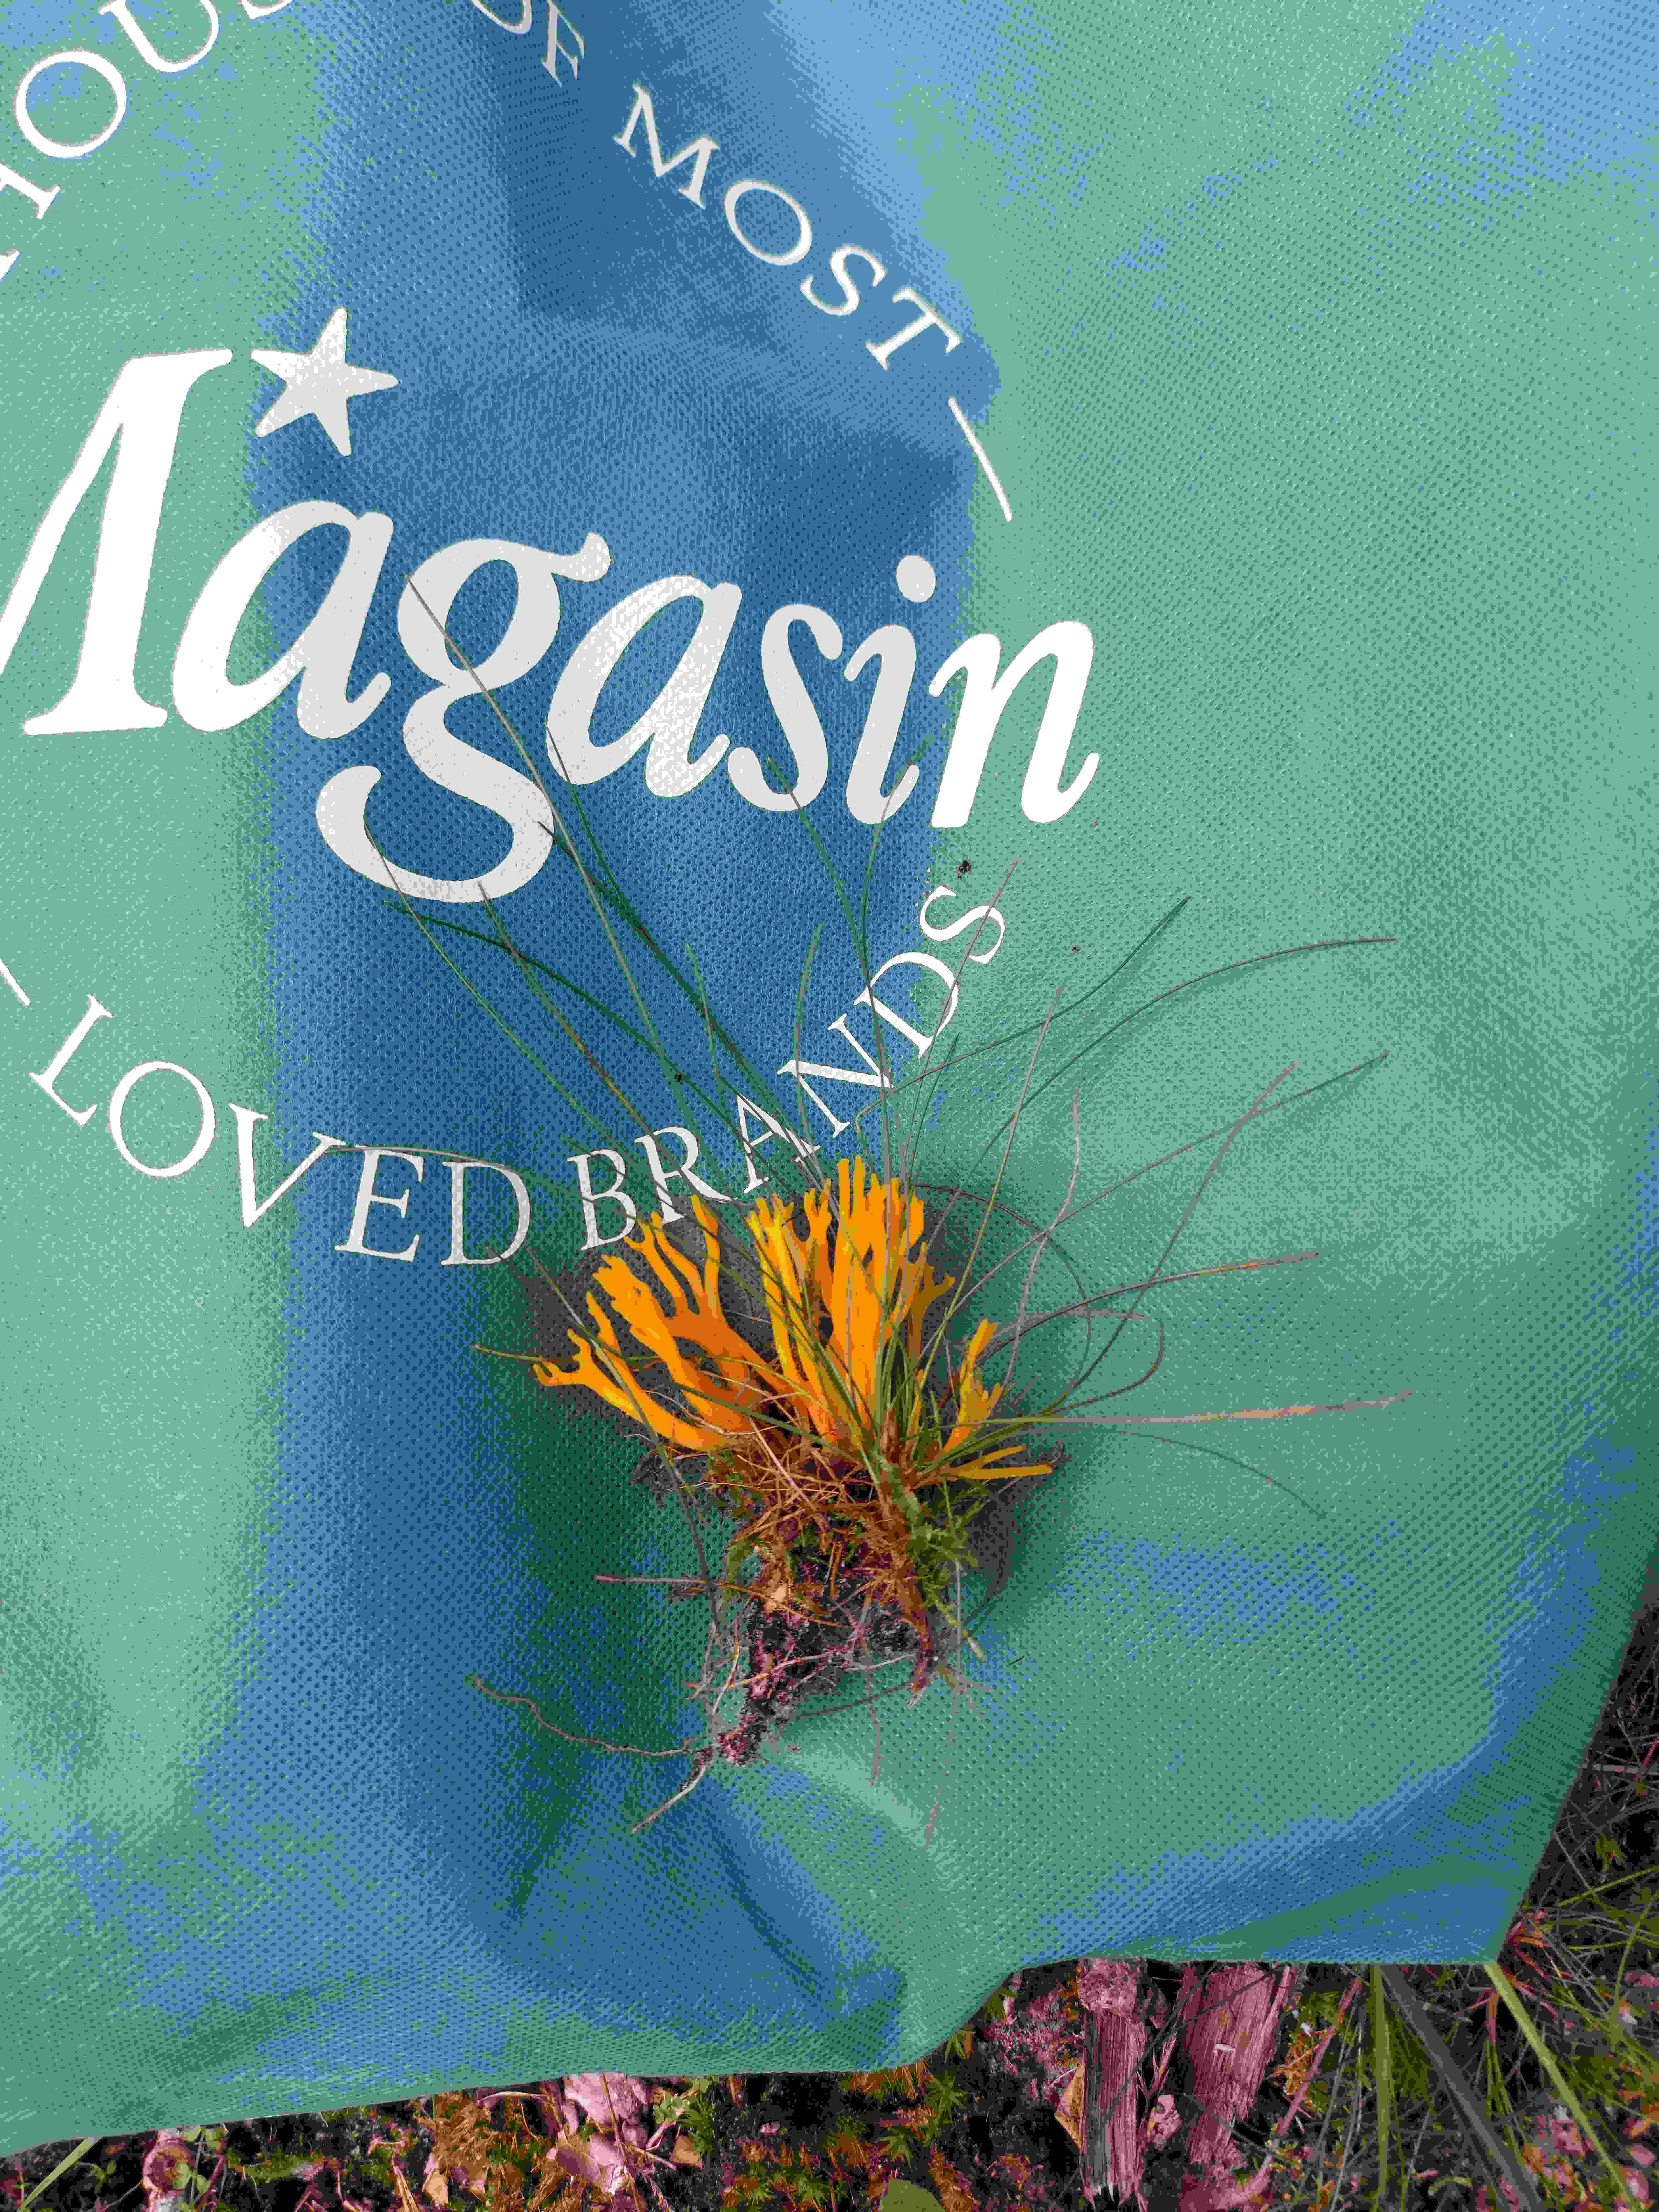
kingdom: Fungi
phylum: Basidiomycota
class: Dacrymycetes
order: Dacrymycetales
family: Dacrymycetaceae
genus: Calocera
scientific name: Calocera viscosa
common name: almindelig guldgaffel
